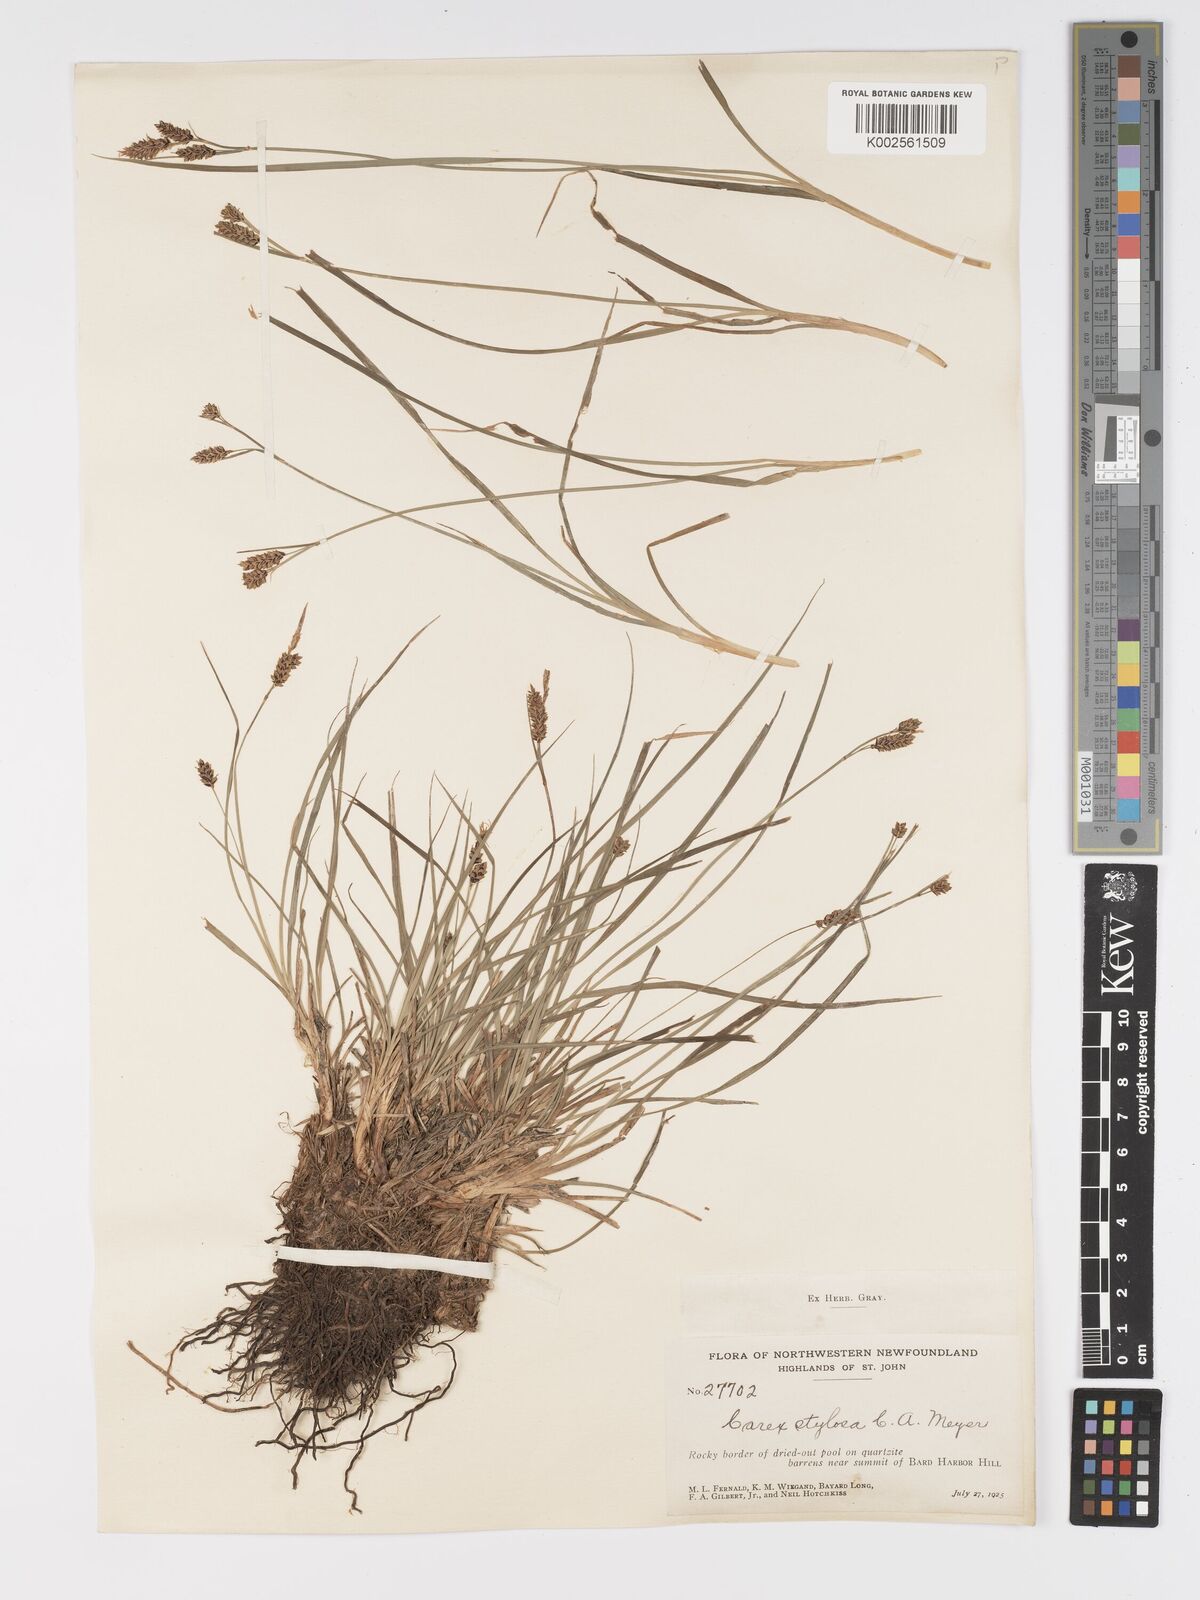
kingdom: Plantae
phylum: Tracheophyta
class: Liliopsida
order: Poales
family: Cyperaceae
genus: Carex
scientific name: Carex stylosa
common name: Long-styled sedge
